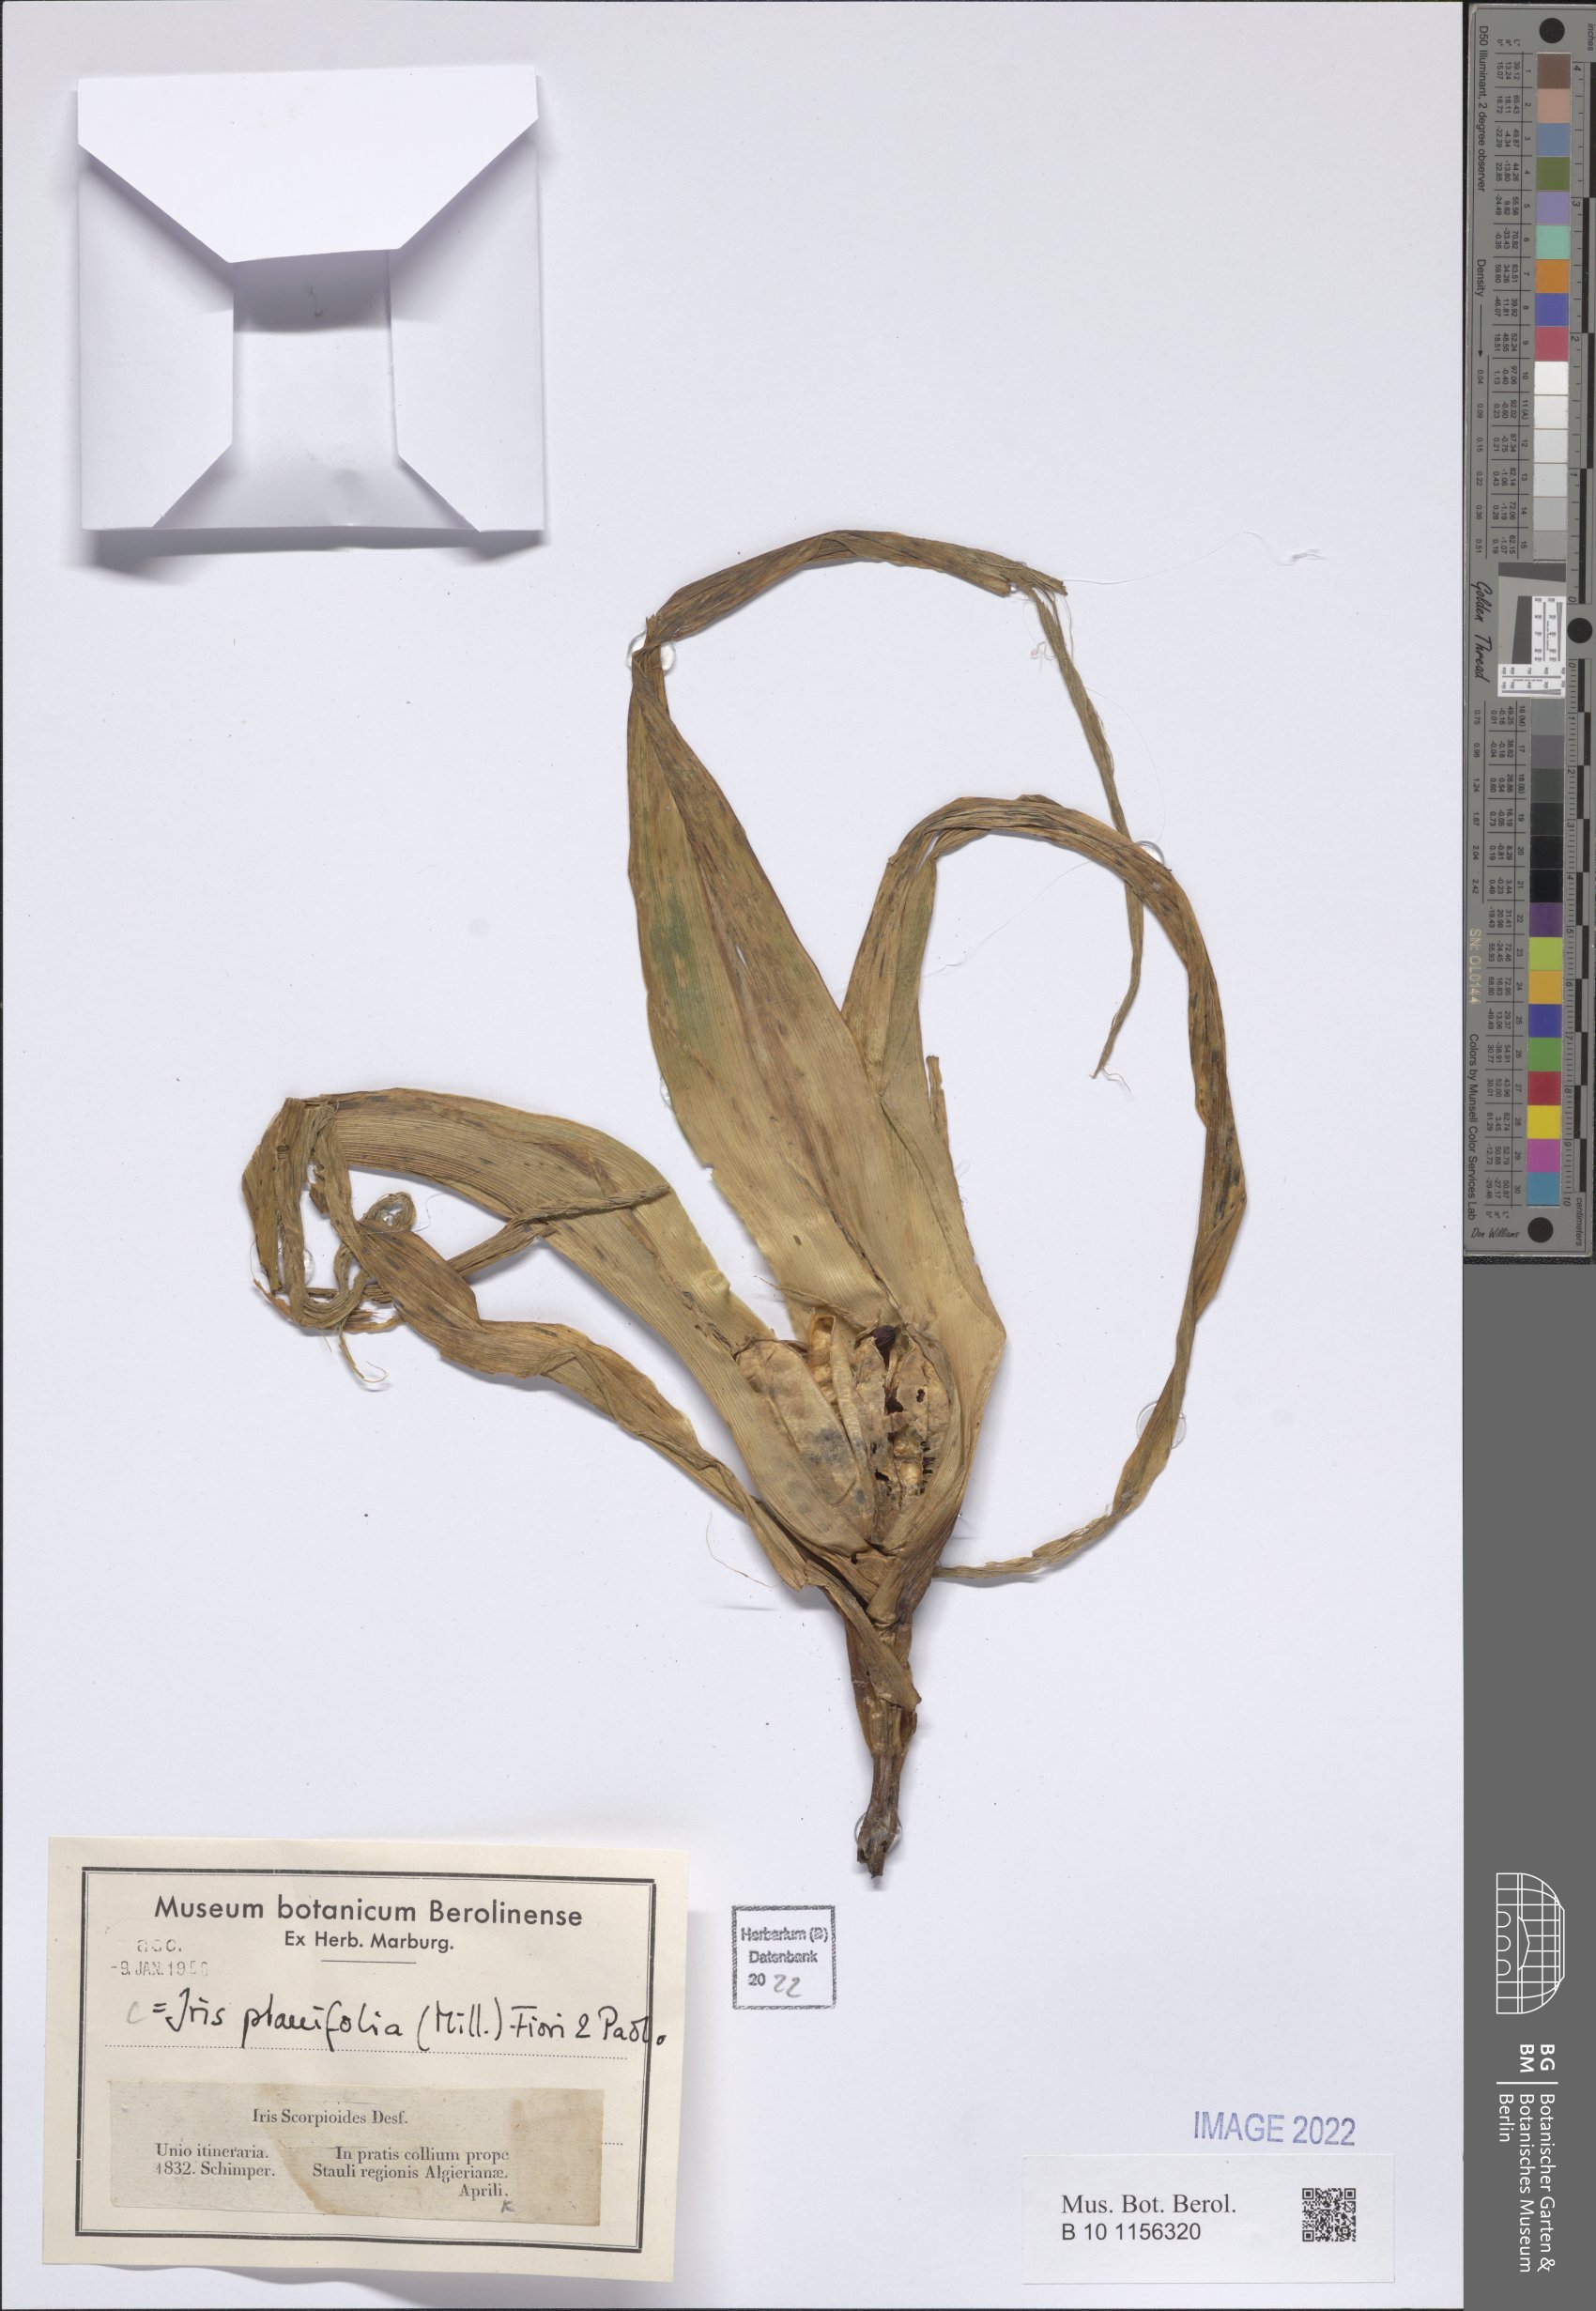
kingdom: Plantae
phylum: Tracheophyta
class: Liliopsida
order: Asparagales
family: Iridaceae
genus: Iris
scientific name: Iris planifolia
